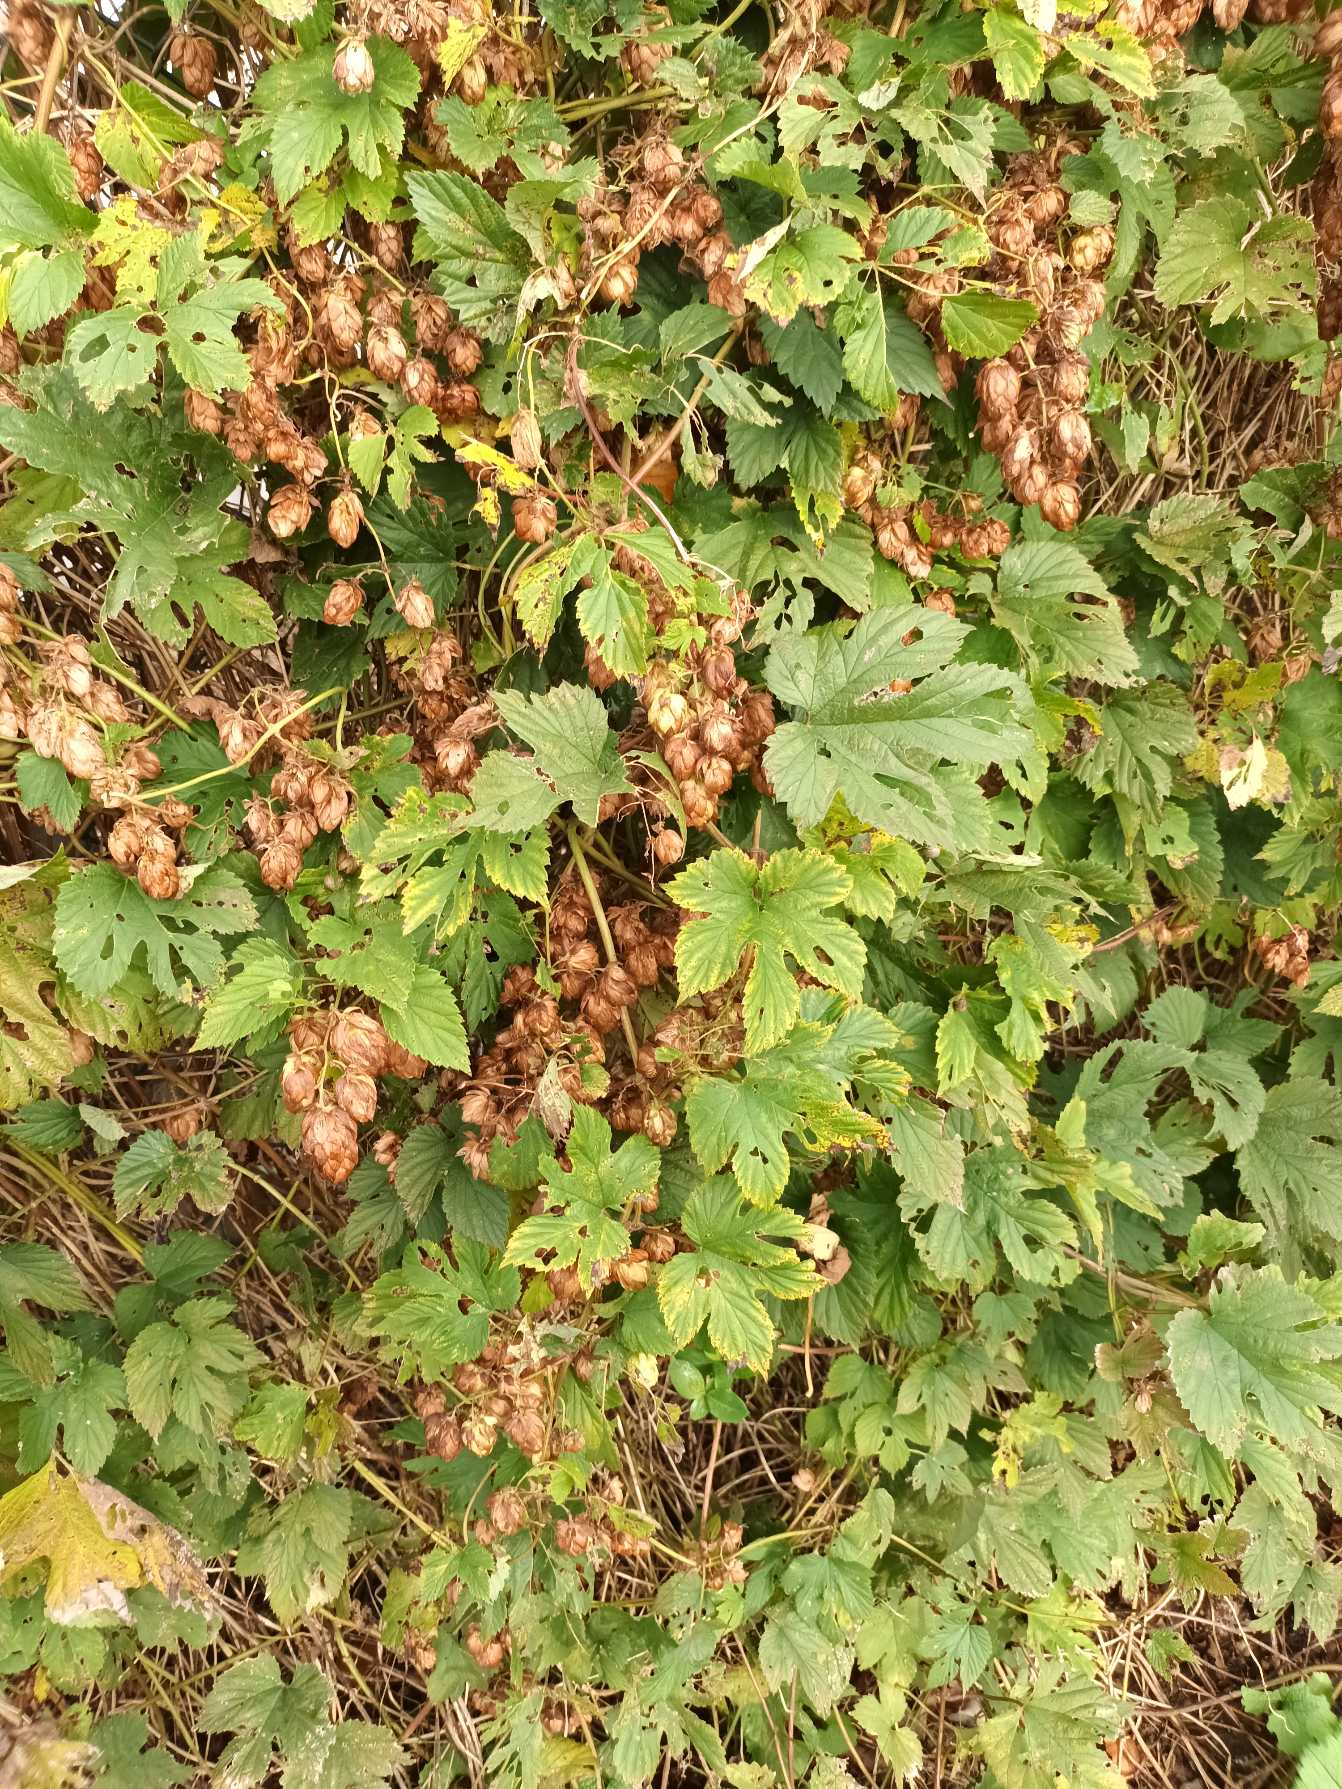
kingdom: Plantae
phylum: Tracheophyta
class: Magnoliopsida
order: Rosales
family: Cannabaceae
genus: Humulus
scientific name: Humulus lupulus
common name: Humle
